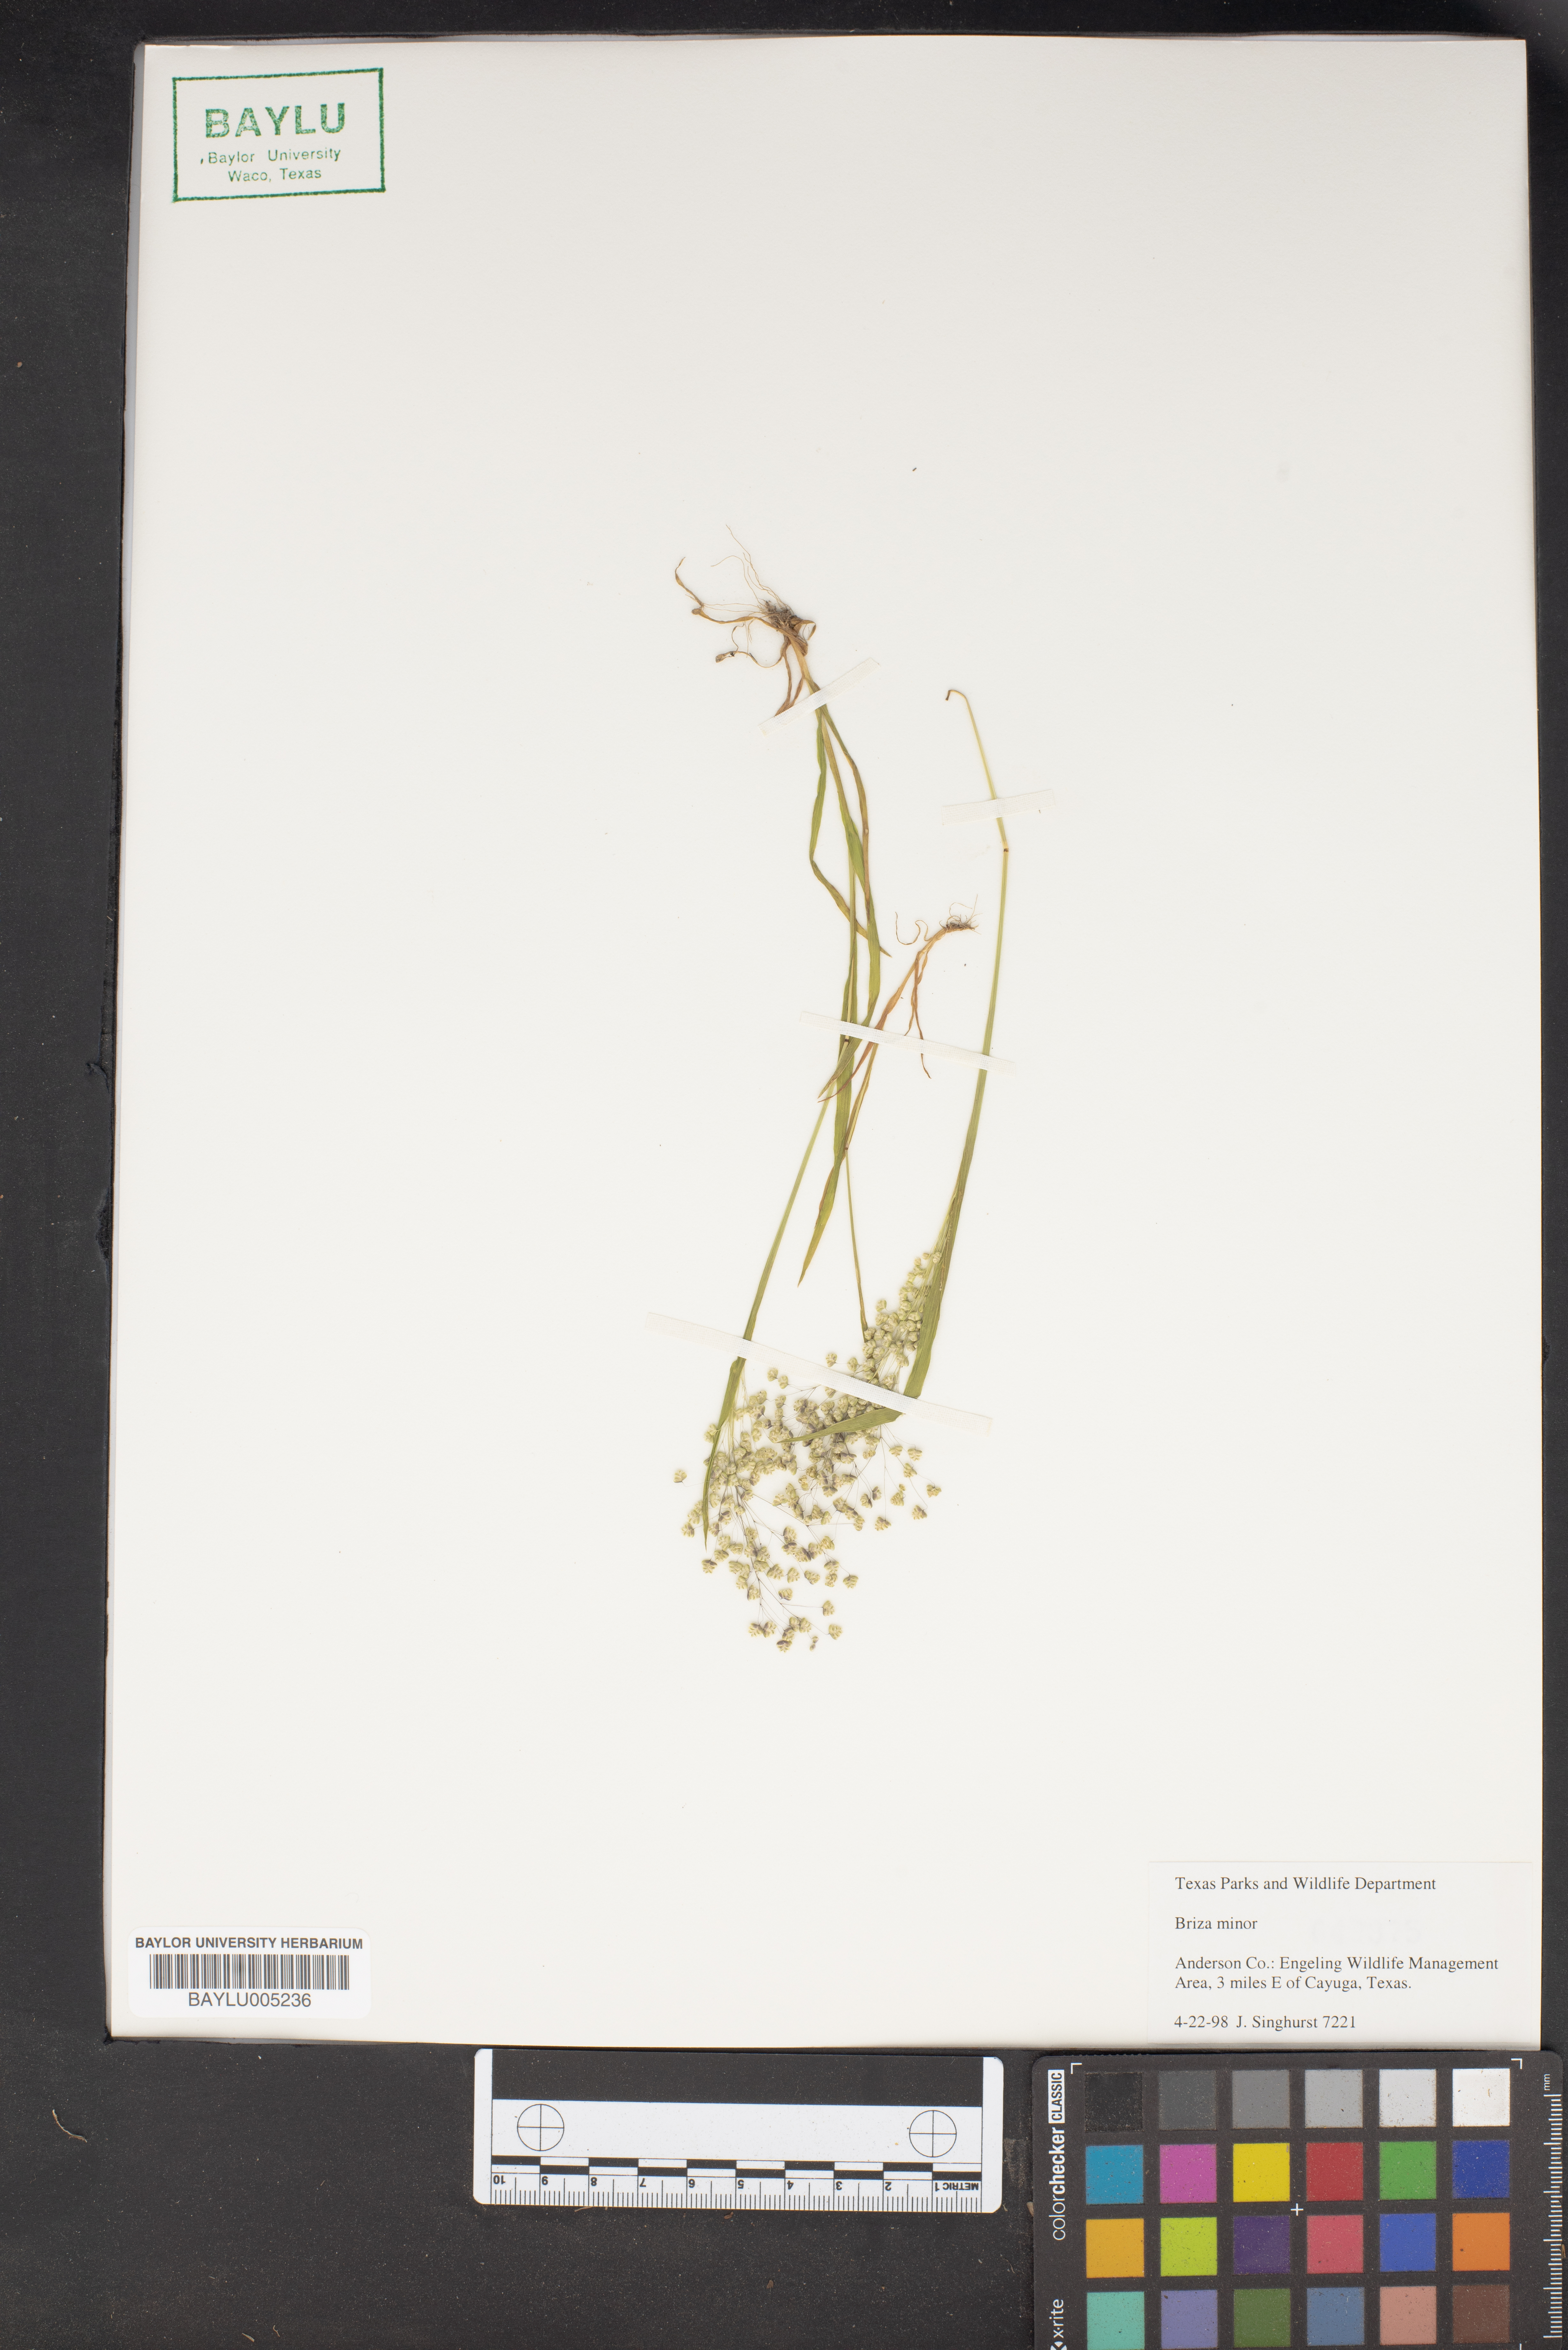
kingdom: Plantae
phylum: Tracheophyta
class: Liliopsida
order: Poales
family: Poaceae
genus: Briza
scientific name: Briza minor
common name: Lesser quaking-grass
